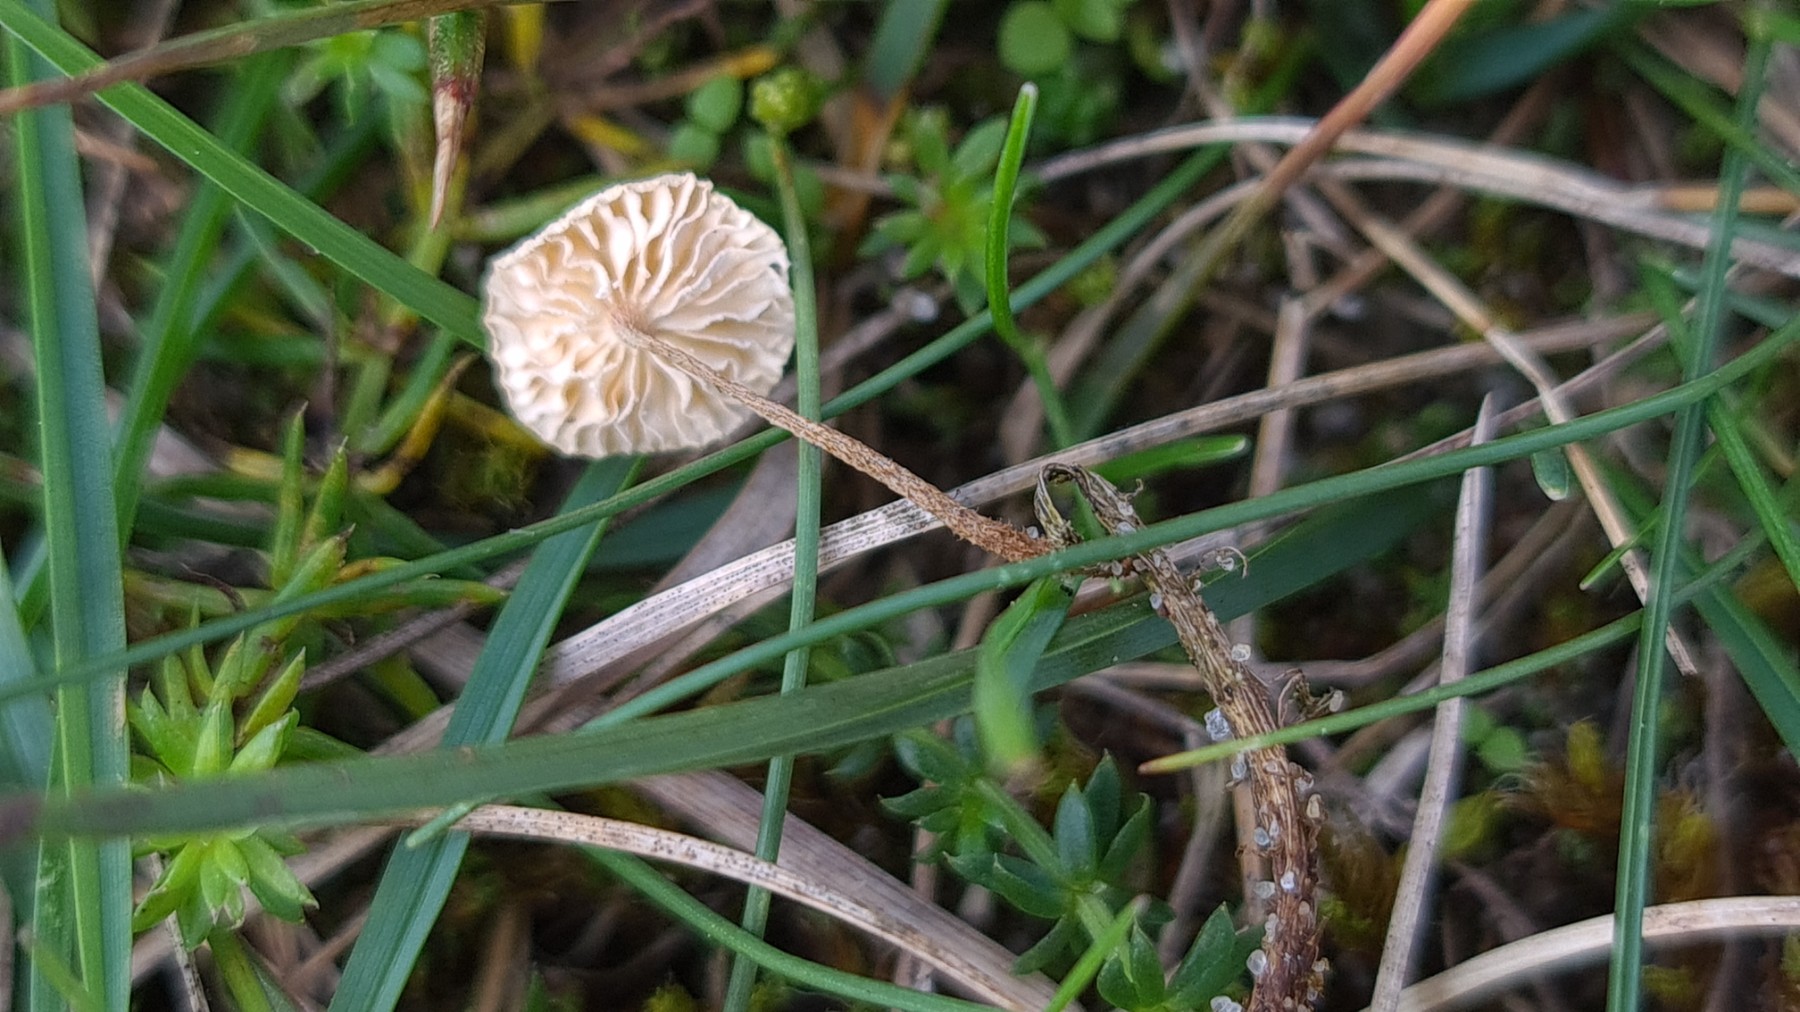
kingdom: Fungi
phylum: Basidiomycota
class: Agaricomycetes
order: Agaricales
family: Marasmiaceae
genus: Crinipellis
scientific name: Crinipellis scabella
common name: børstefod
